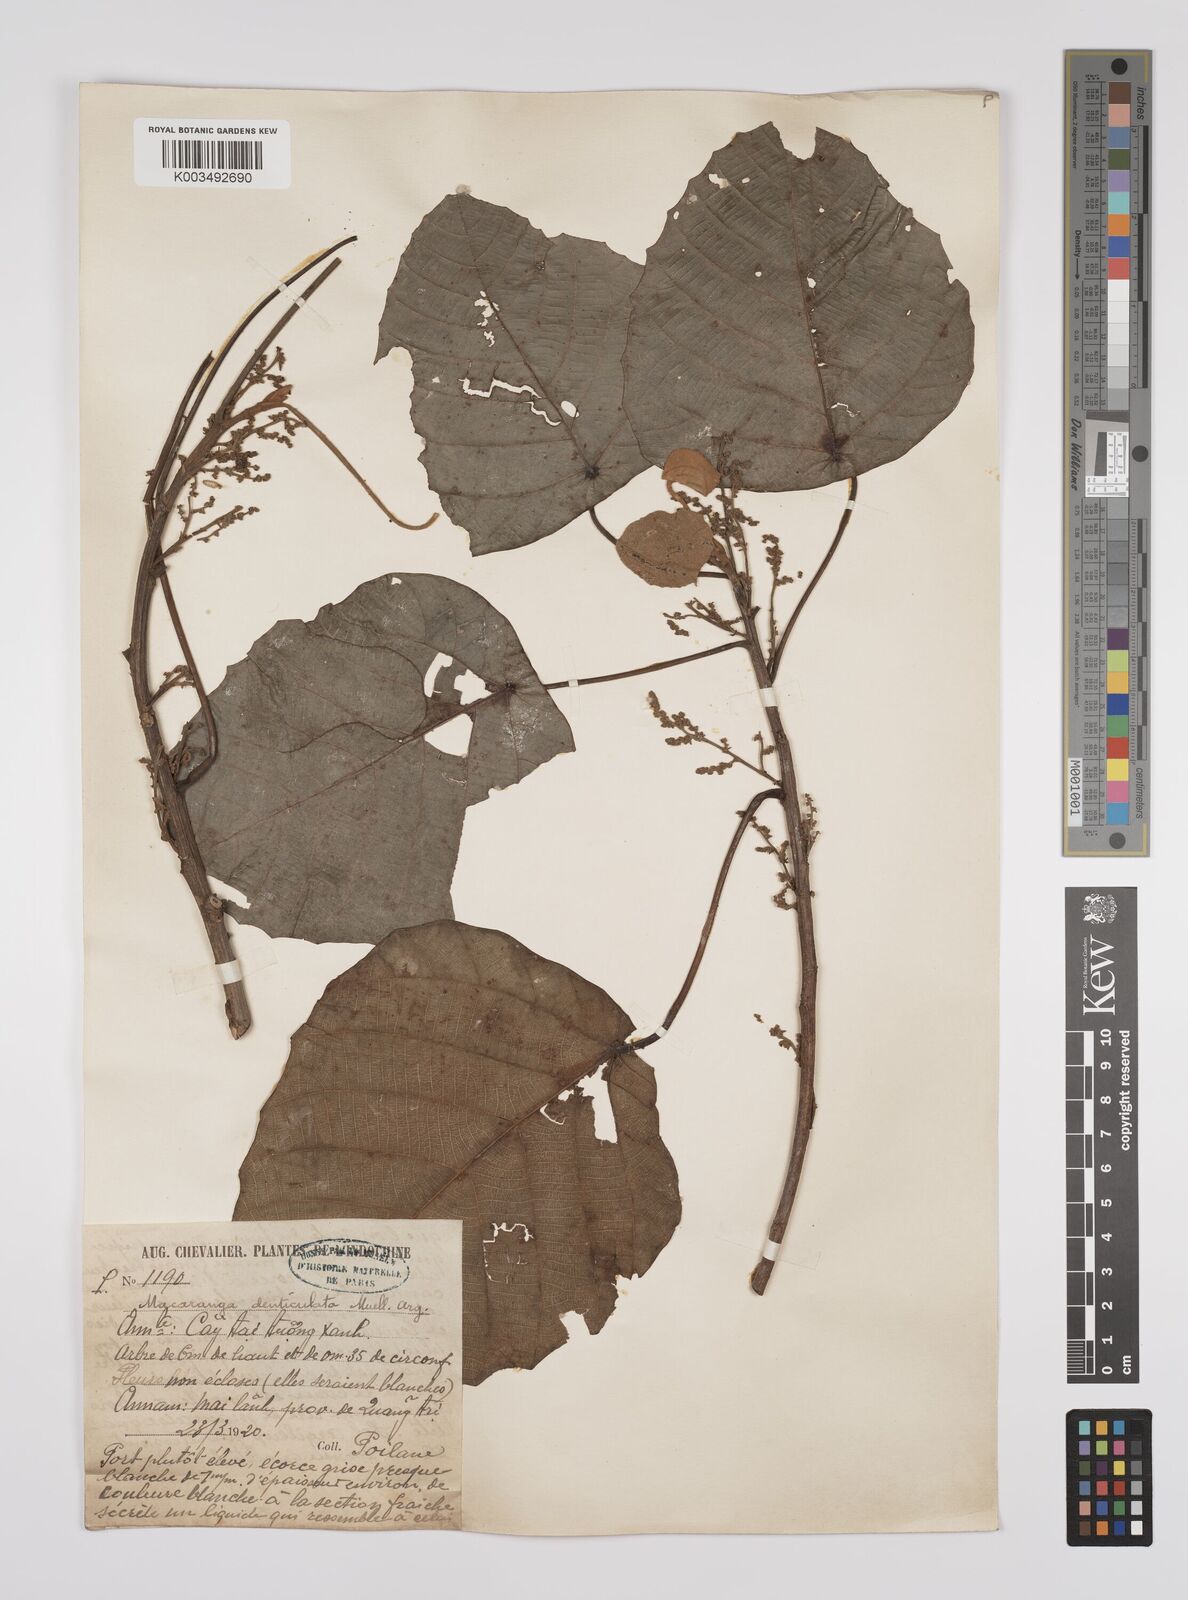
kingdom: Plantae
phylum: Tracheophyta
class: Magnoliopsida
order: Malpighiales
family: Euphorbiaceae
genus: Macaranga
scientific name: Macaranga denticulata
